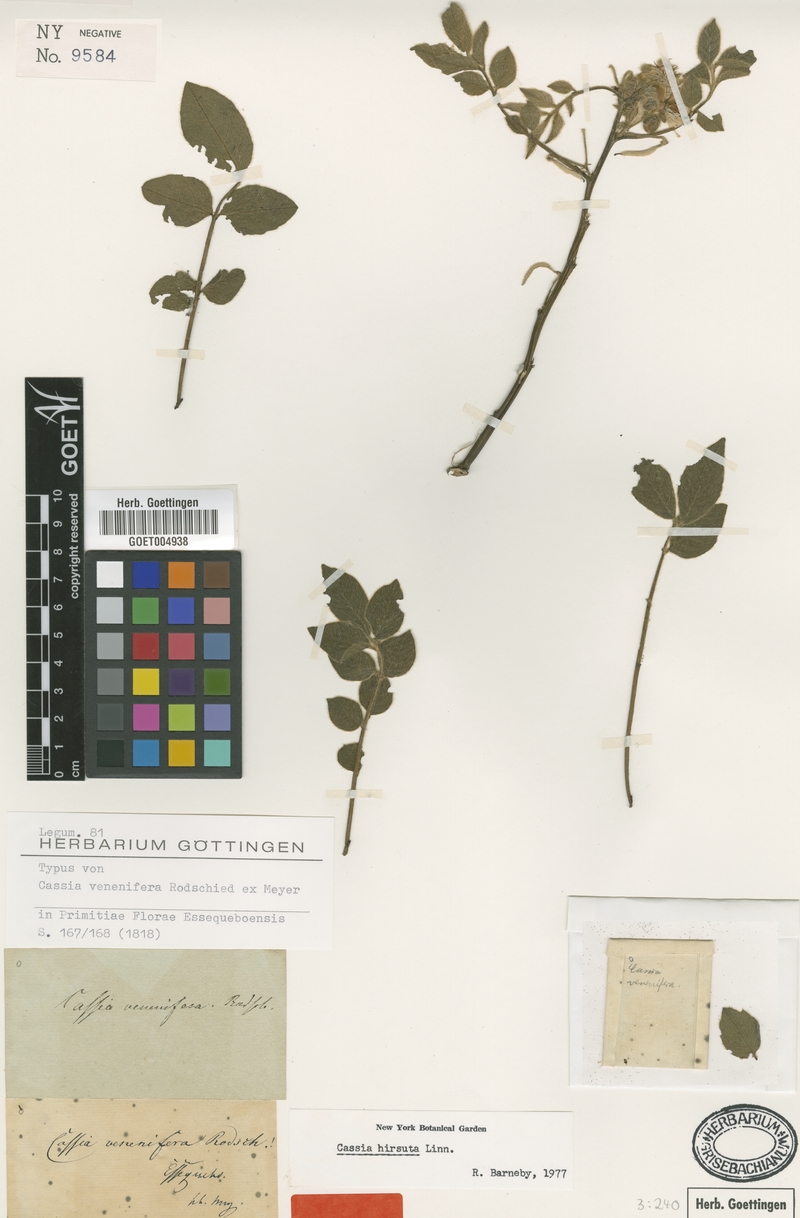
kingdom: Plantae
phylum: Tracheophyta
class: Magnoliopsida
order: Fabales
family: Fabaceae
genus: Senna
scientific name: Senna hirsuta
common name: Woolly senna
